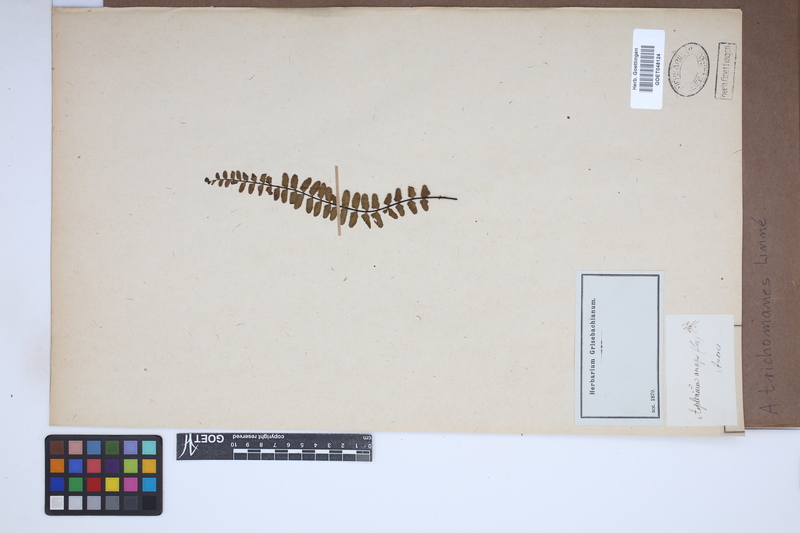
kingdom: Plantae
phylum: Tracheophyta
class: Polypodiopsida
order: Polypodiales
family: Aspleniaceae
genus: Asplenium
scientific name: Asplenium trichomanes
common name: Maidenhair spleenwort
